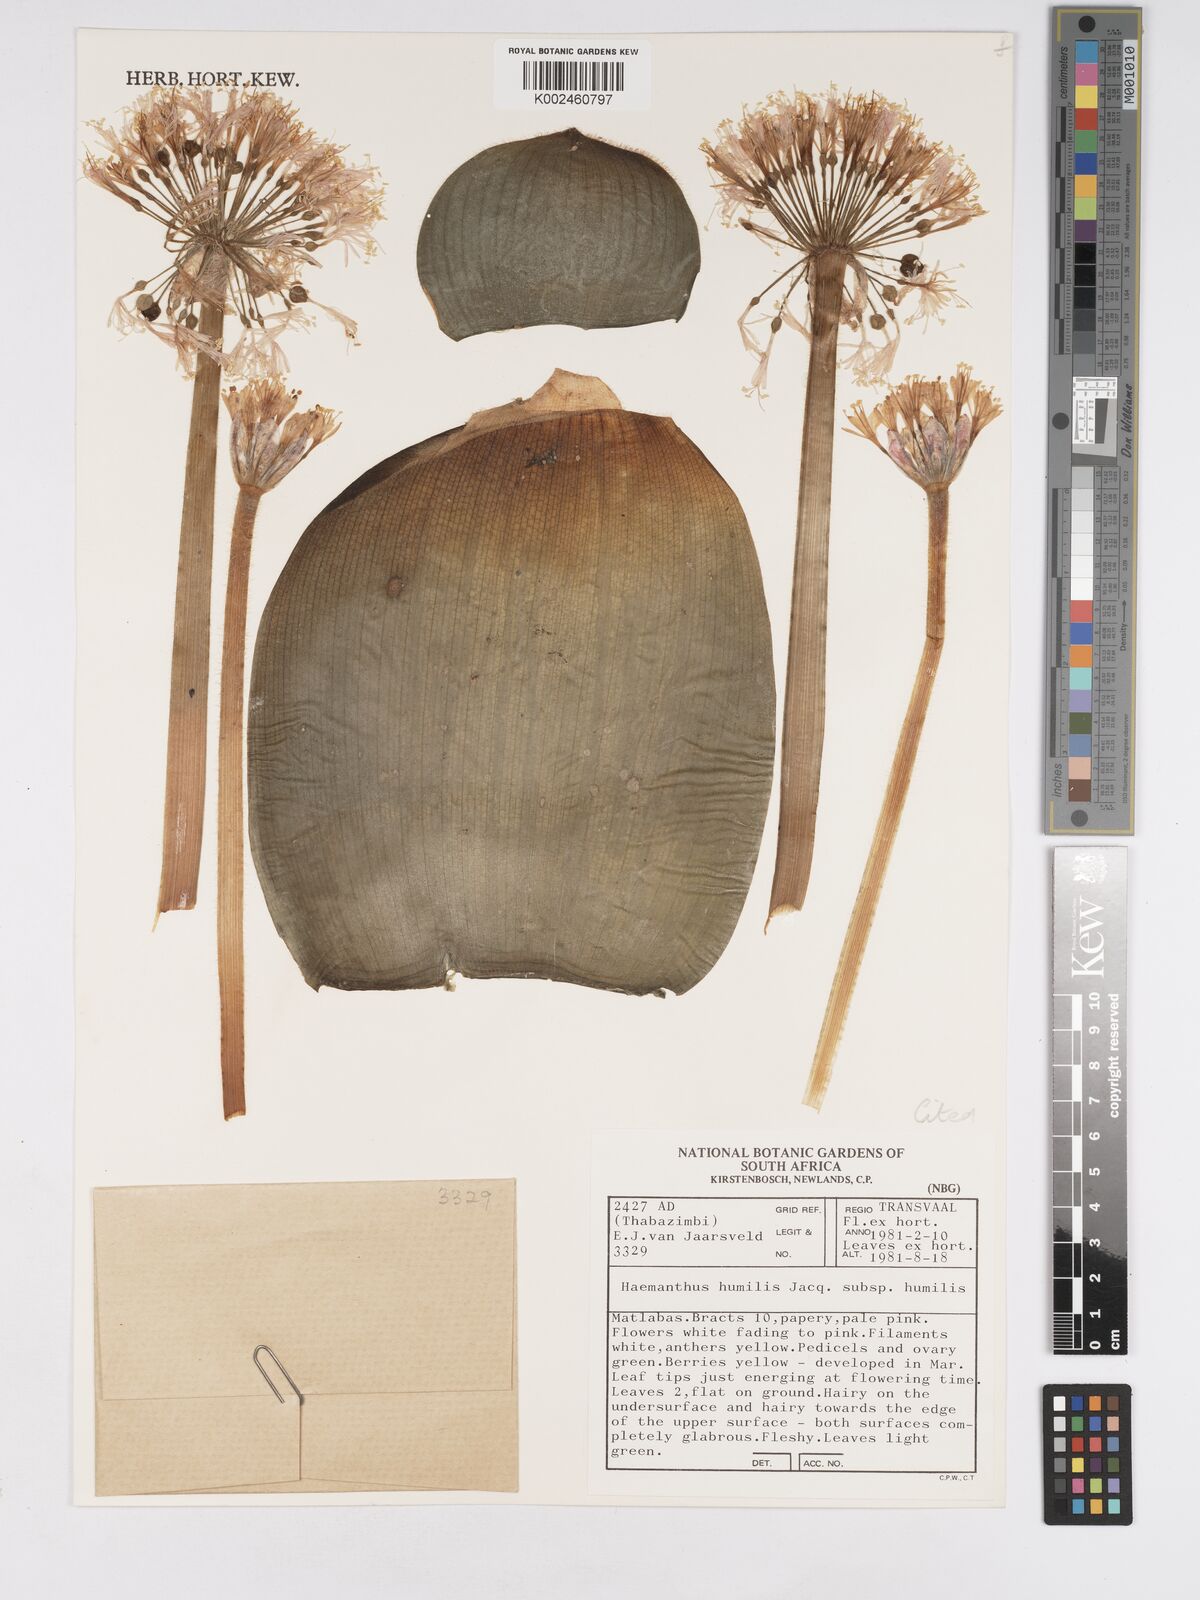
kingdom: Plantae
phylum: Tracheophyta
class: Liliopsida
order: Asparagales
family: Amaryllidaceae
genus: Haemanthus
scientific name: Haemanthus humilis
